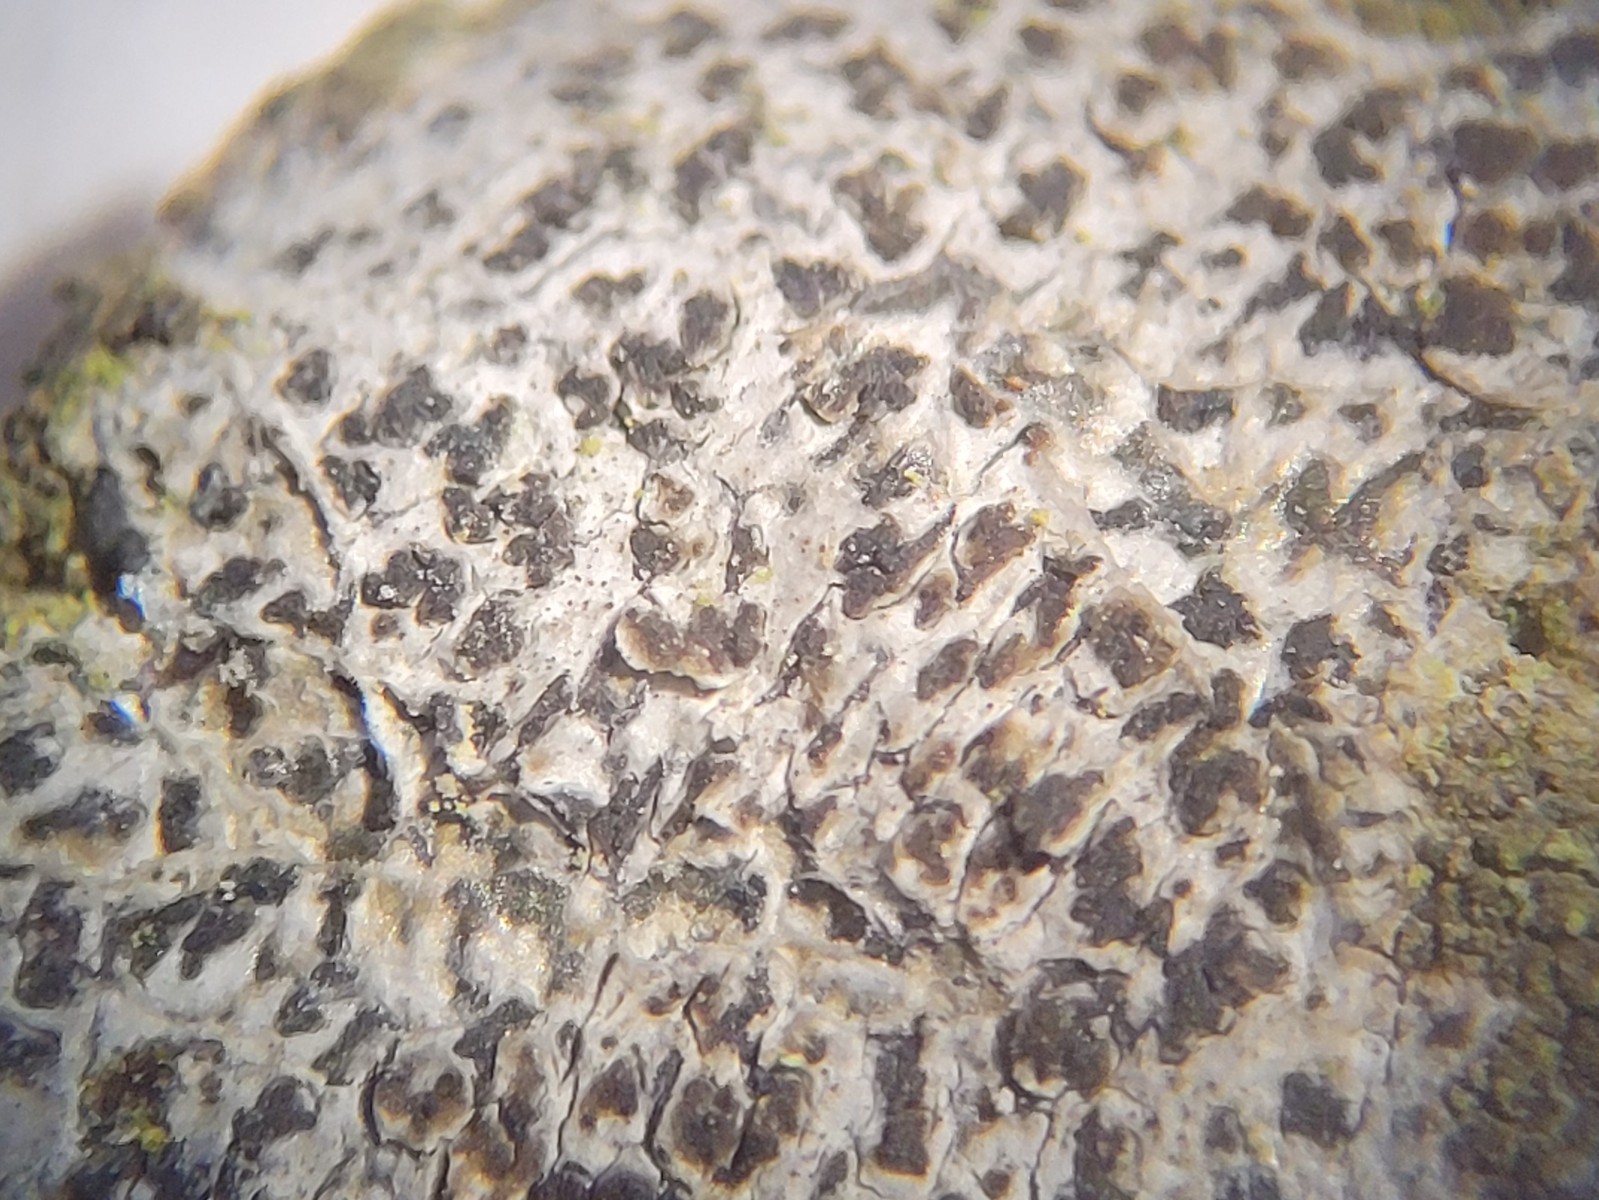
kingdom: Fungi
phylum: Ascomycota
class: Arthoniomycetes
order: Arthoniales
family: Arthoniaceae
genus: Arthonia
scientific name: Arthonia radiata
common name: stjerne-pletlav
